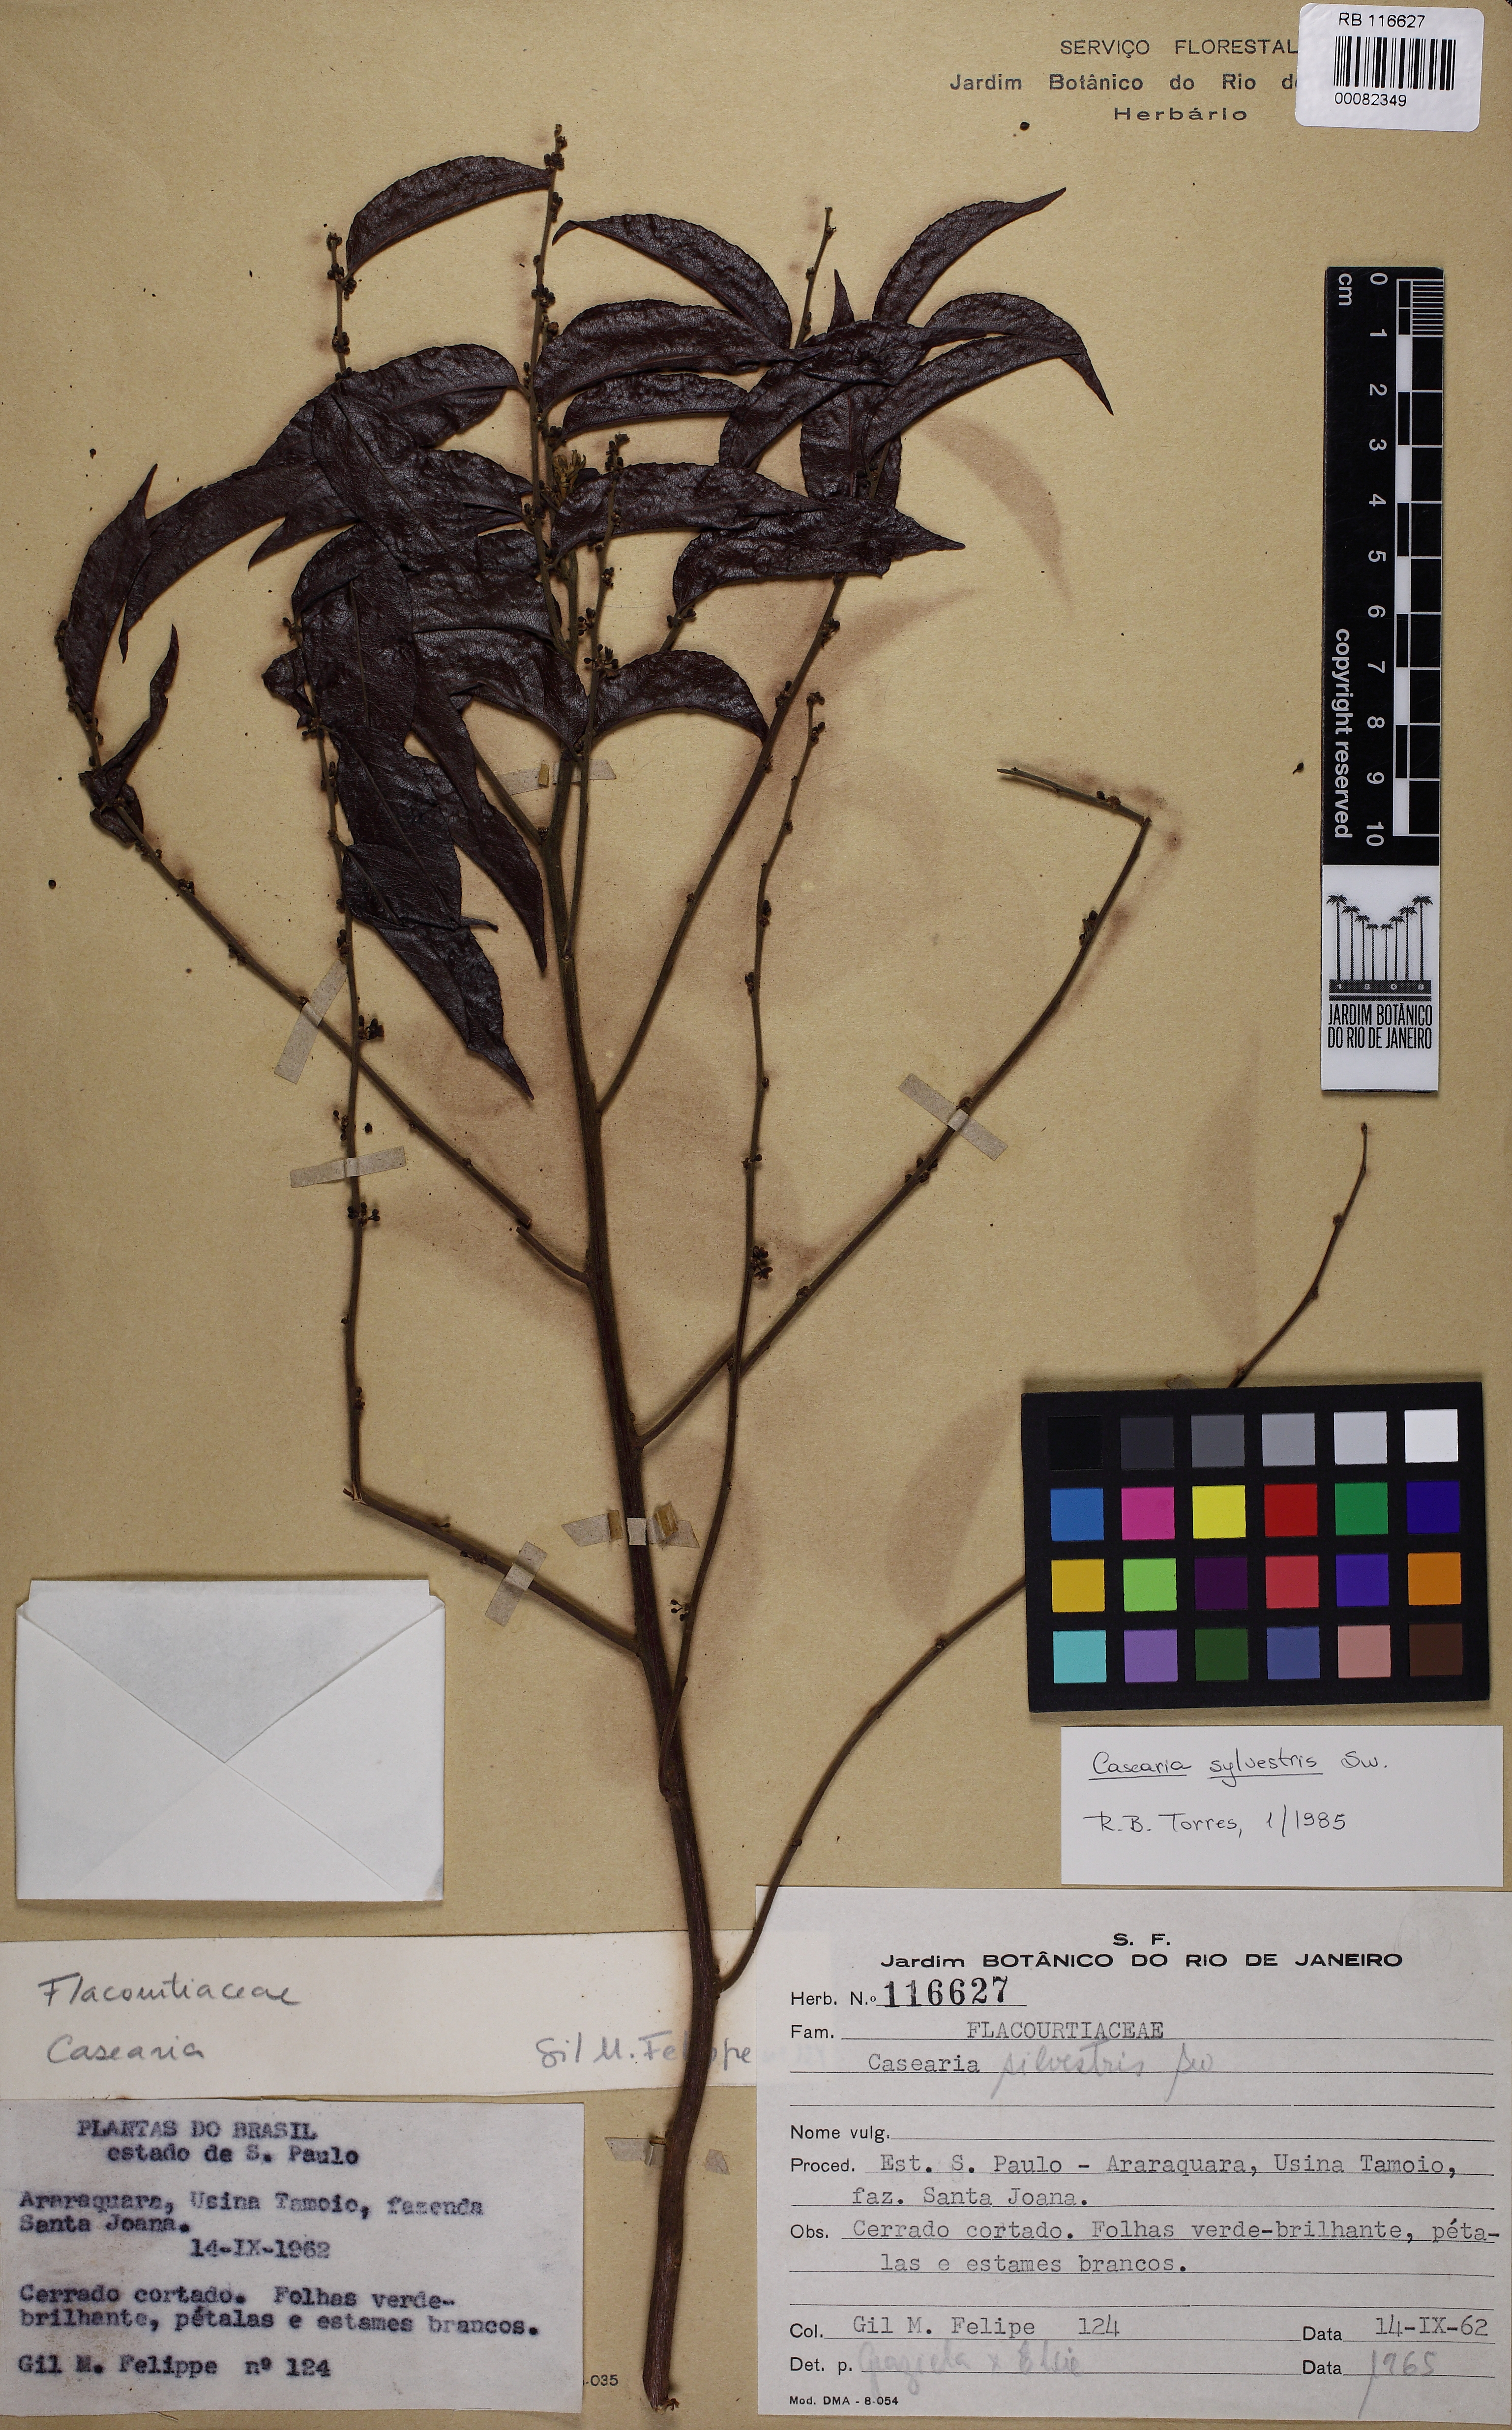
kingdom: Plantae
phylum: Tracheophyta
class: Magnoliopsida
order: Malpighiales
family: Salicaceae
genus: Casearia
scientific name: Casearia sylvestris
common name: Wild sage
